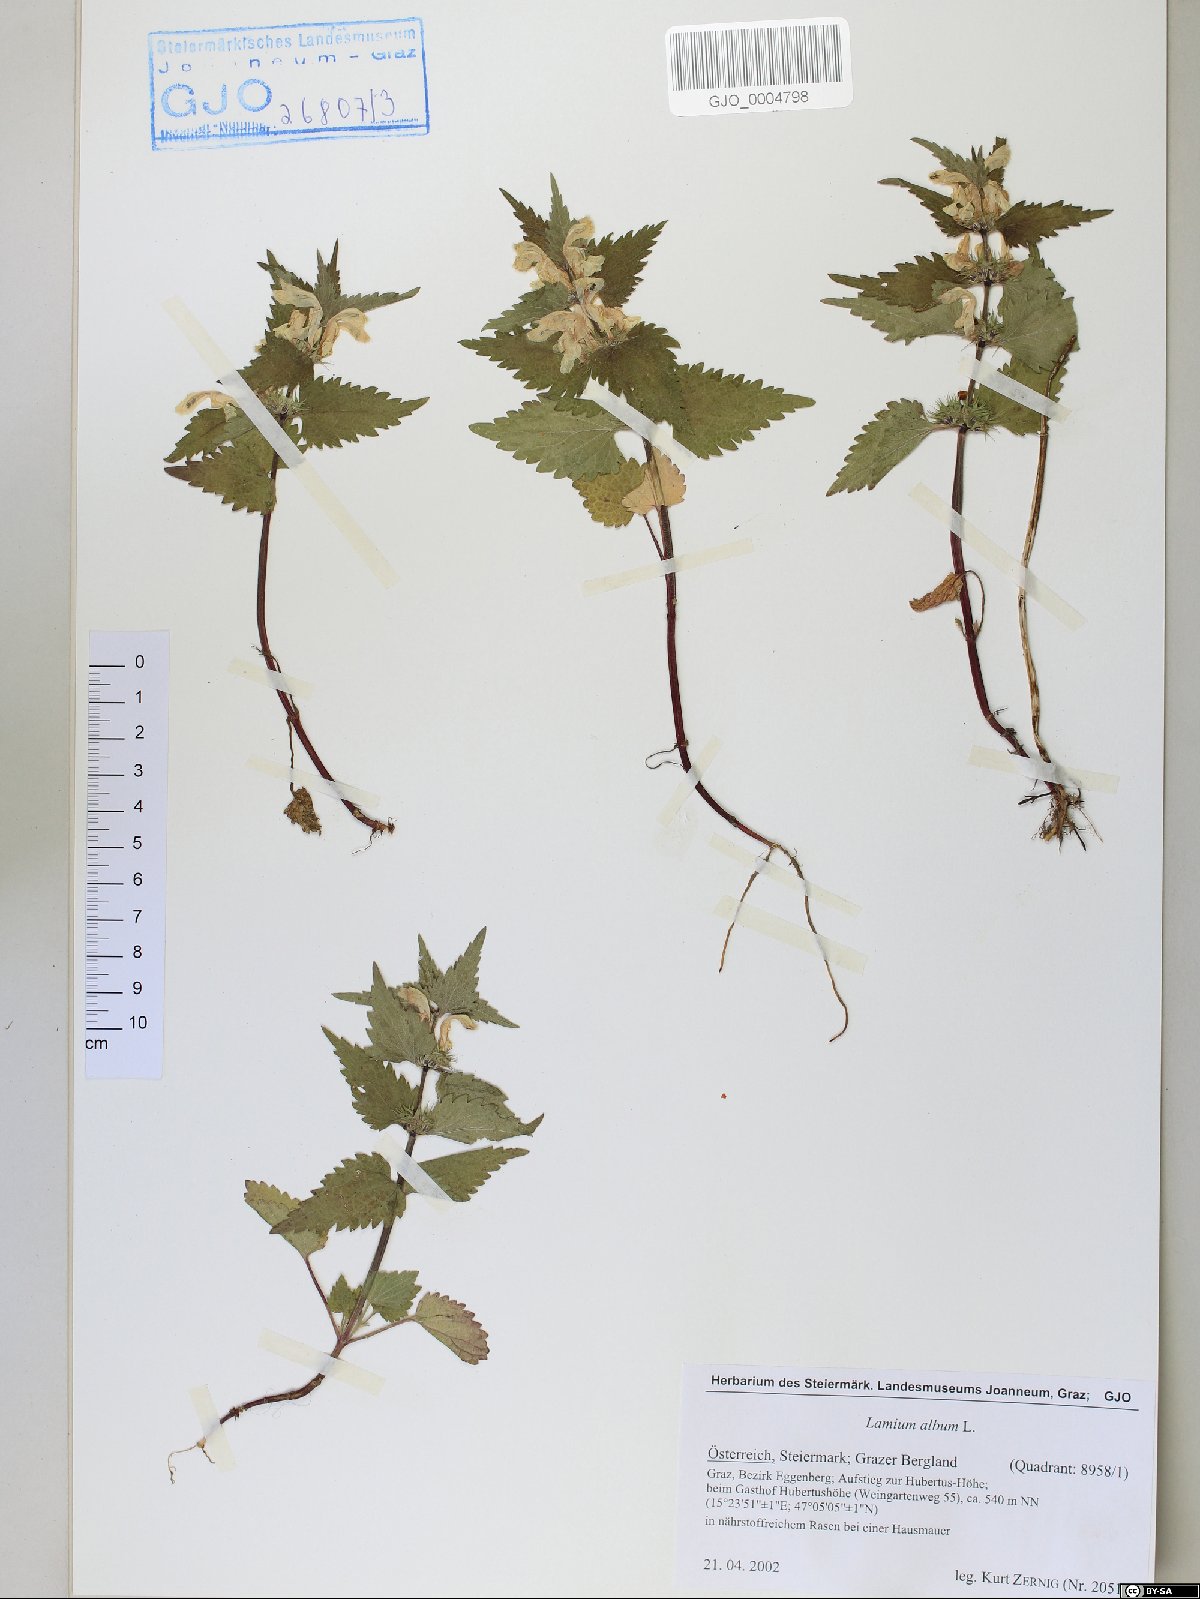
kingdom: Plantae
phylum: Tracheophyta
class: Magnoliopsida
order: Lamiales
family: Lamiaceae
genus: Lamium
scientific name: Lamium album
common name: White dead-nettle
